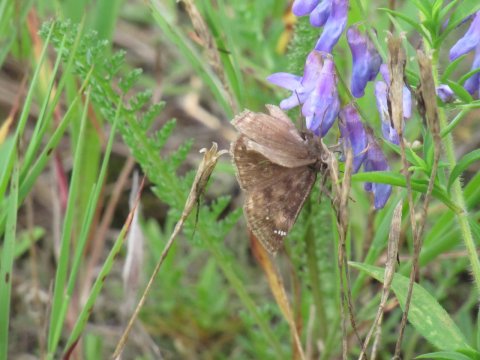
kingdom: Animalia
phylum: Arthropoda
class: Insecta
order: Lepidoptera
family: Hesperiidae
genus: Erynnis
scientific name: Erynnis
